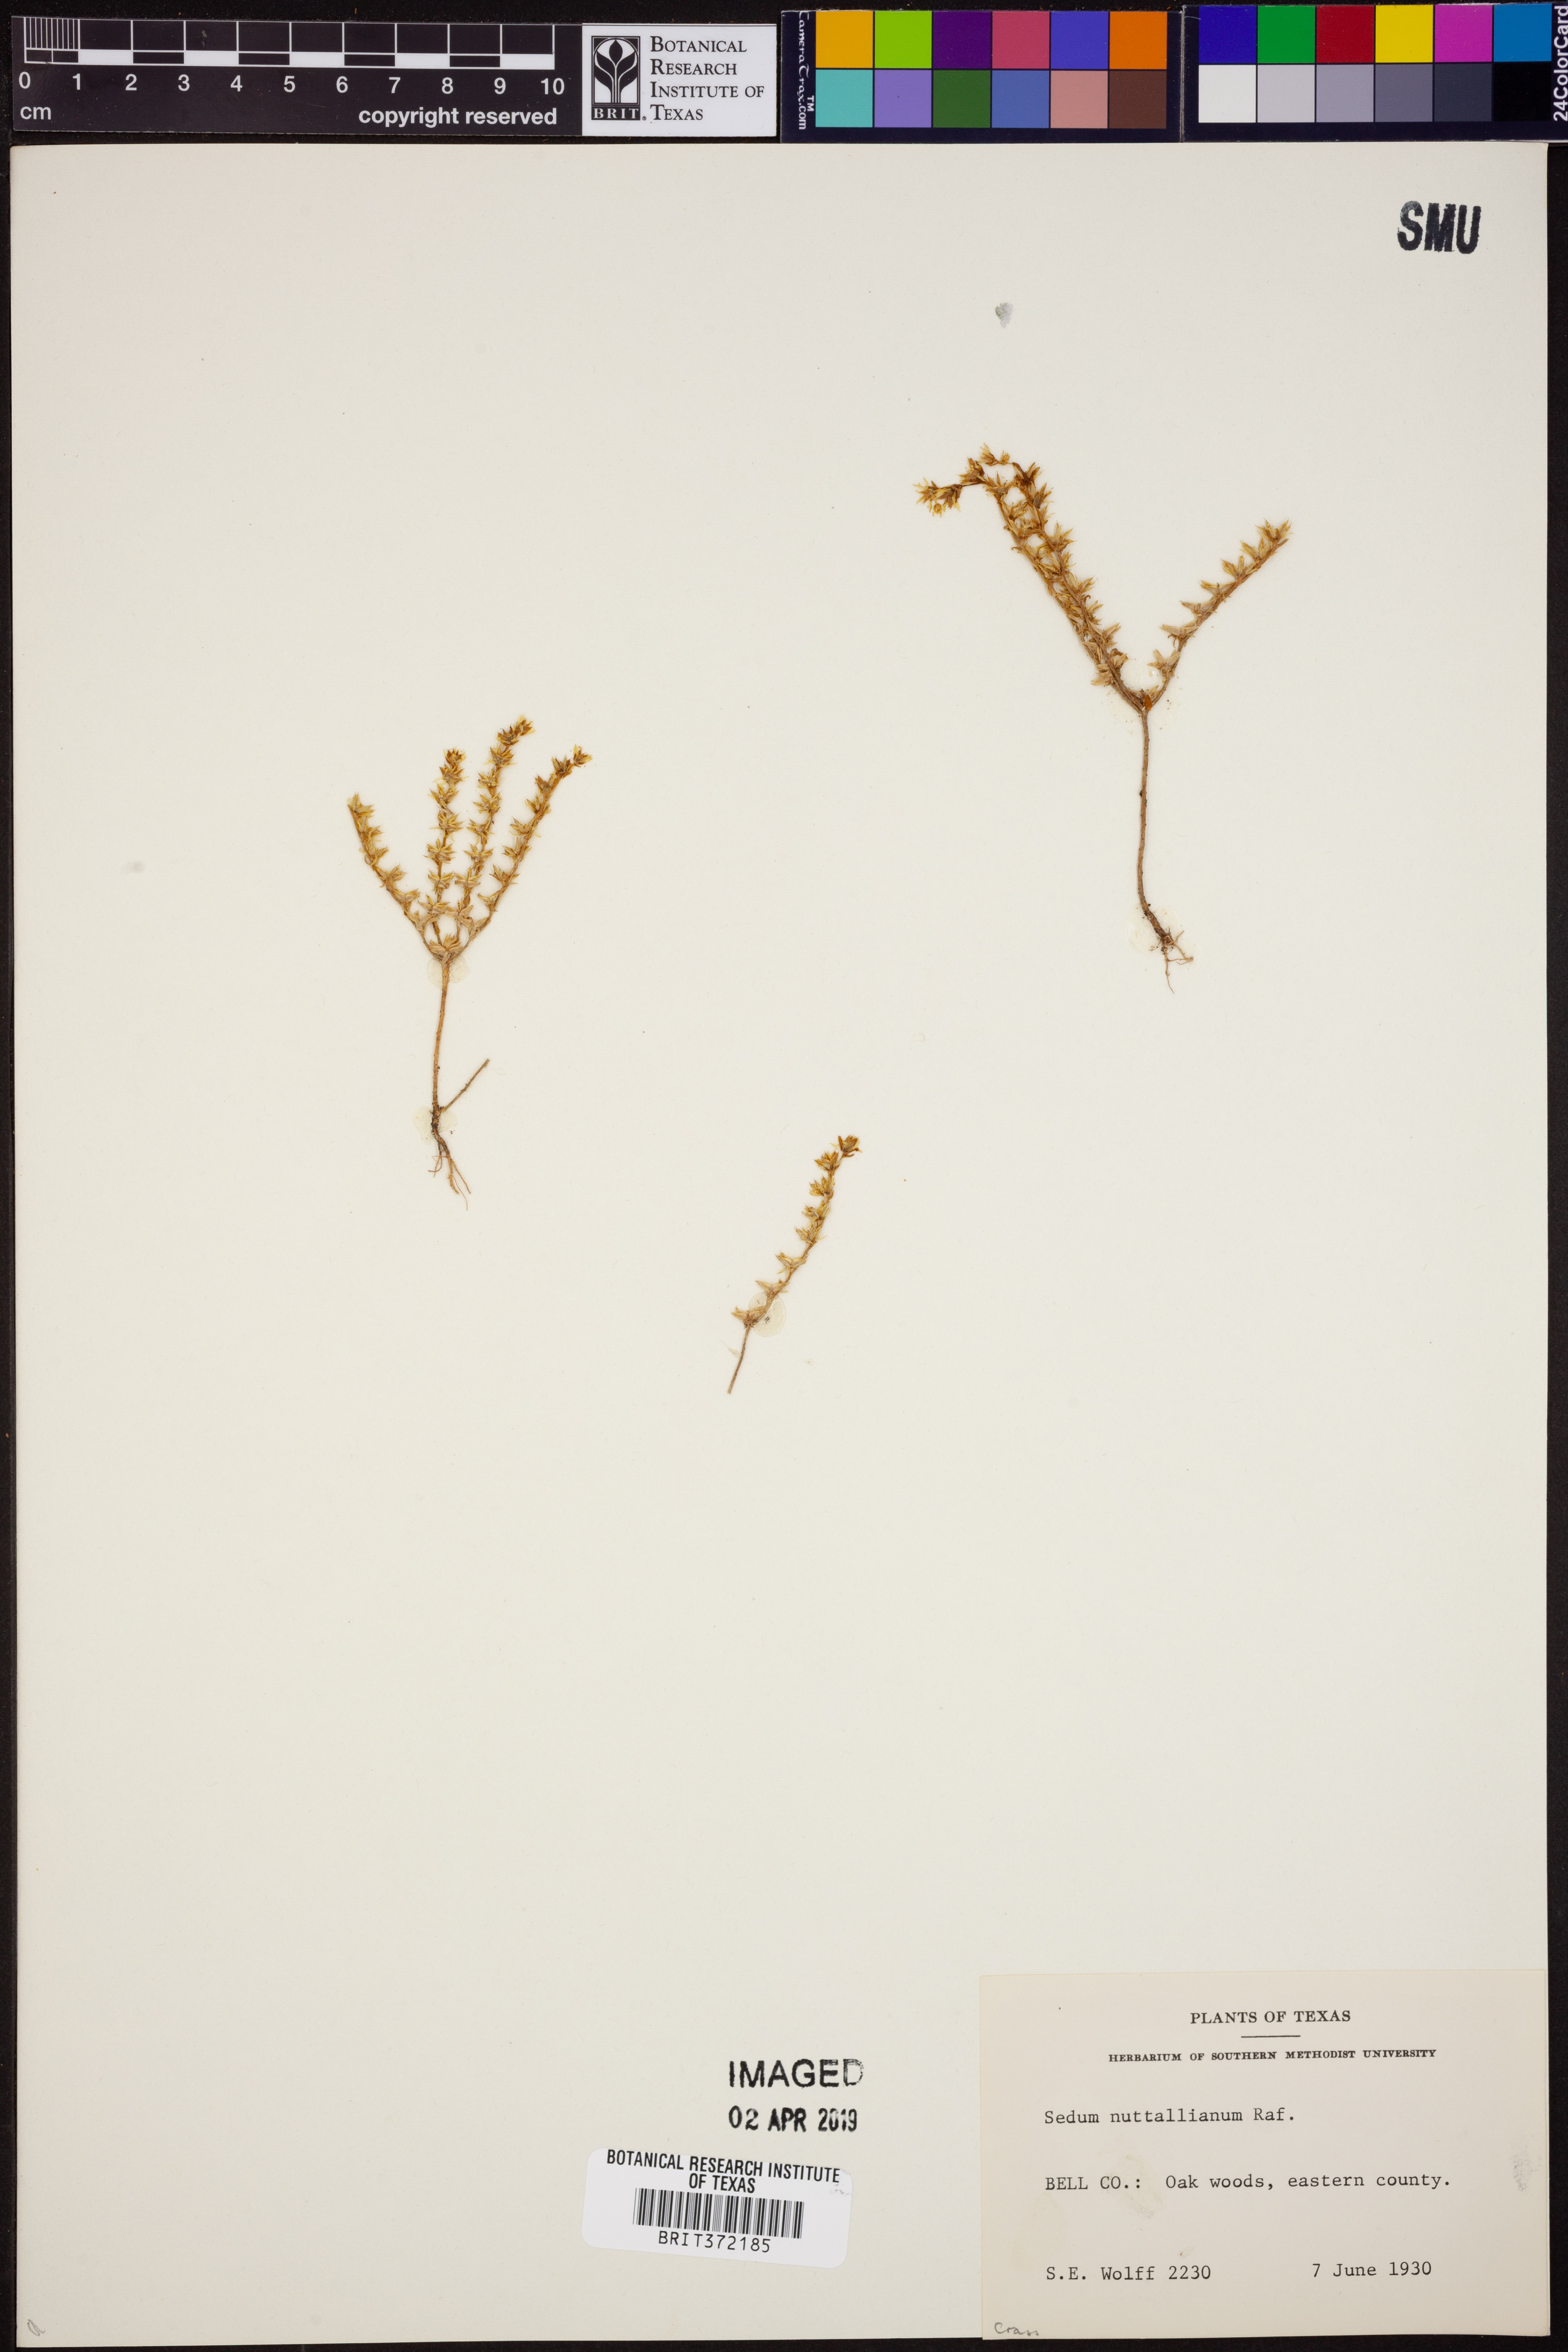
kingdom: Plantae
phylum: Tracheophyta
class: Magnoliopsida
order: Saxifragales
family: Crassulaceae
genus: Sedum
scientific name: Sedum nuttallii
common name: Yellow stonecrop
